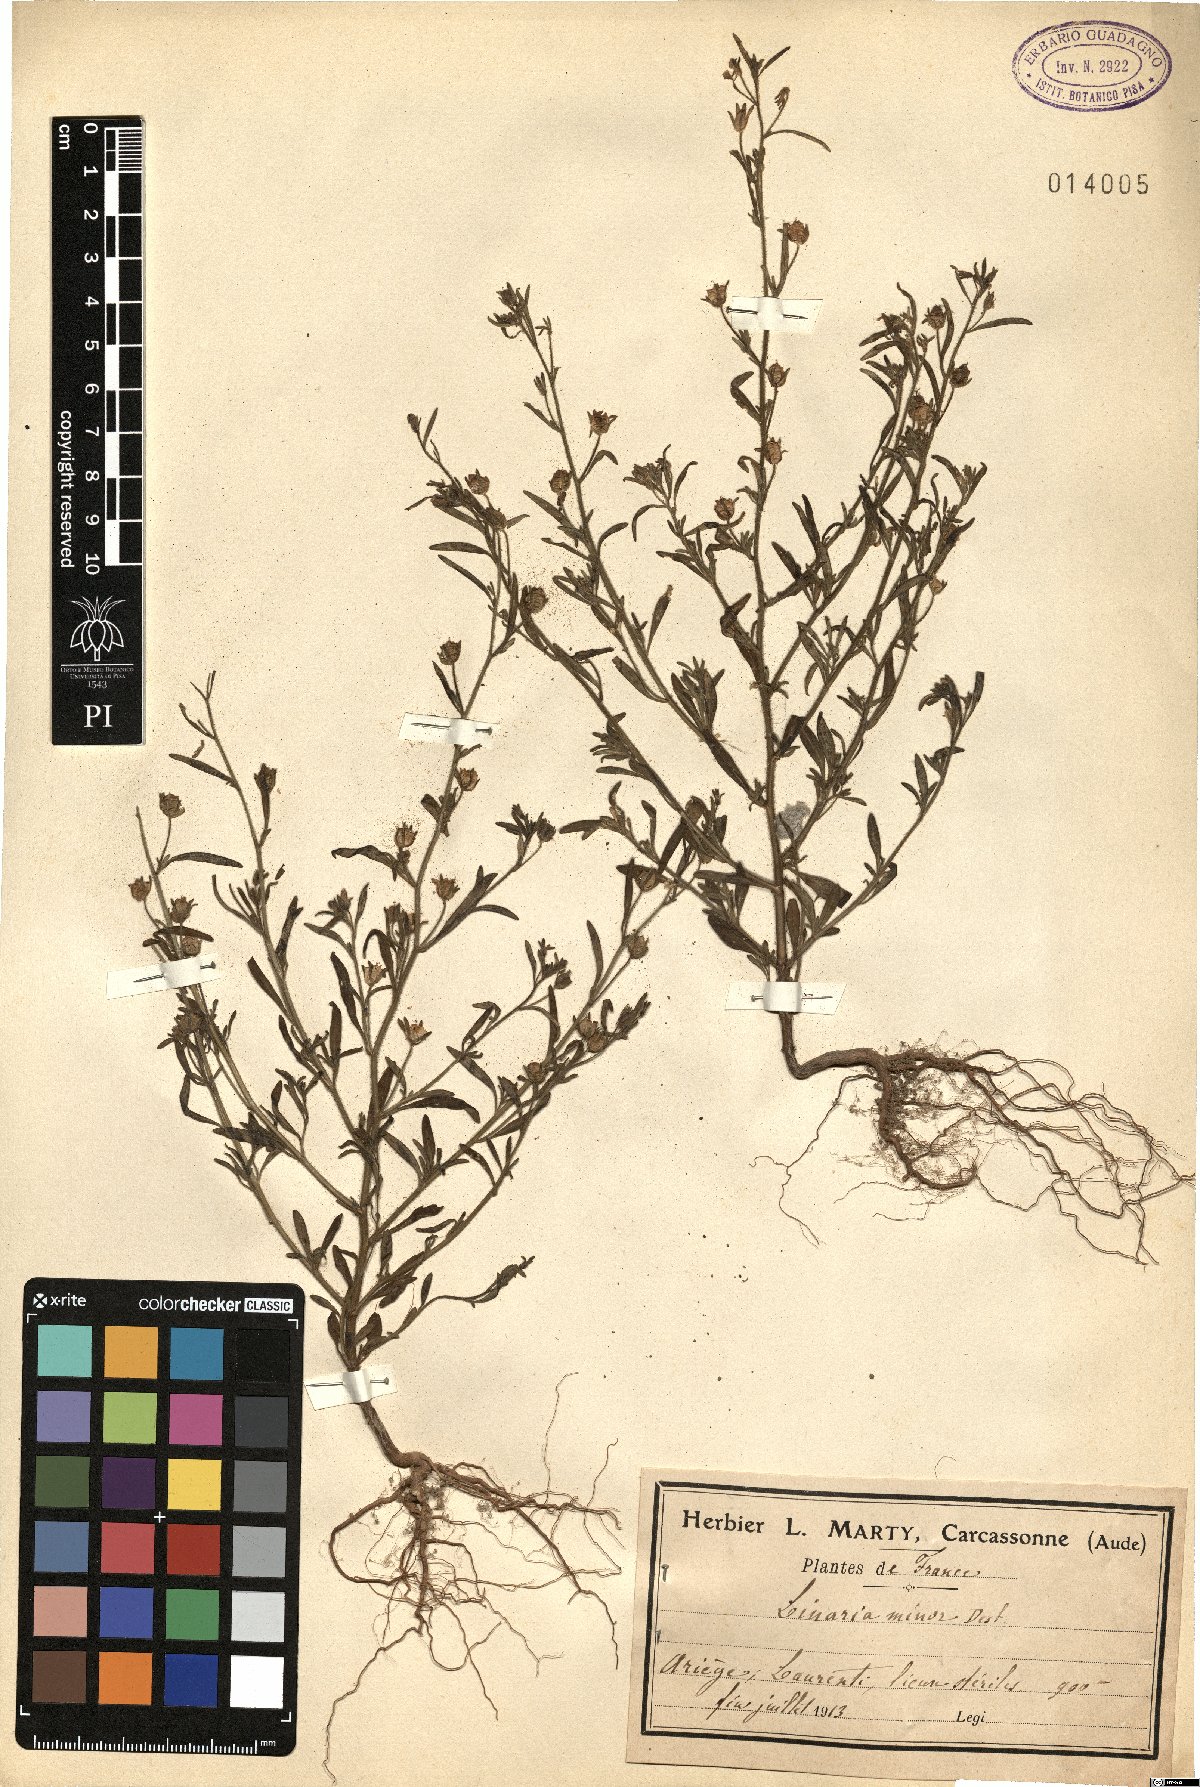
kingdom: Plantae
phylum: Tracheophyta
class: Magnoliopsida
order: Lamiales
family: Plantaginaceae
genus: Chaenorhinum
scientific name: Chaenorhinum minus
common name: Dwarf snapdragon
